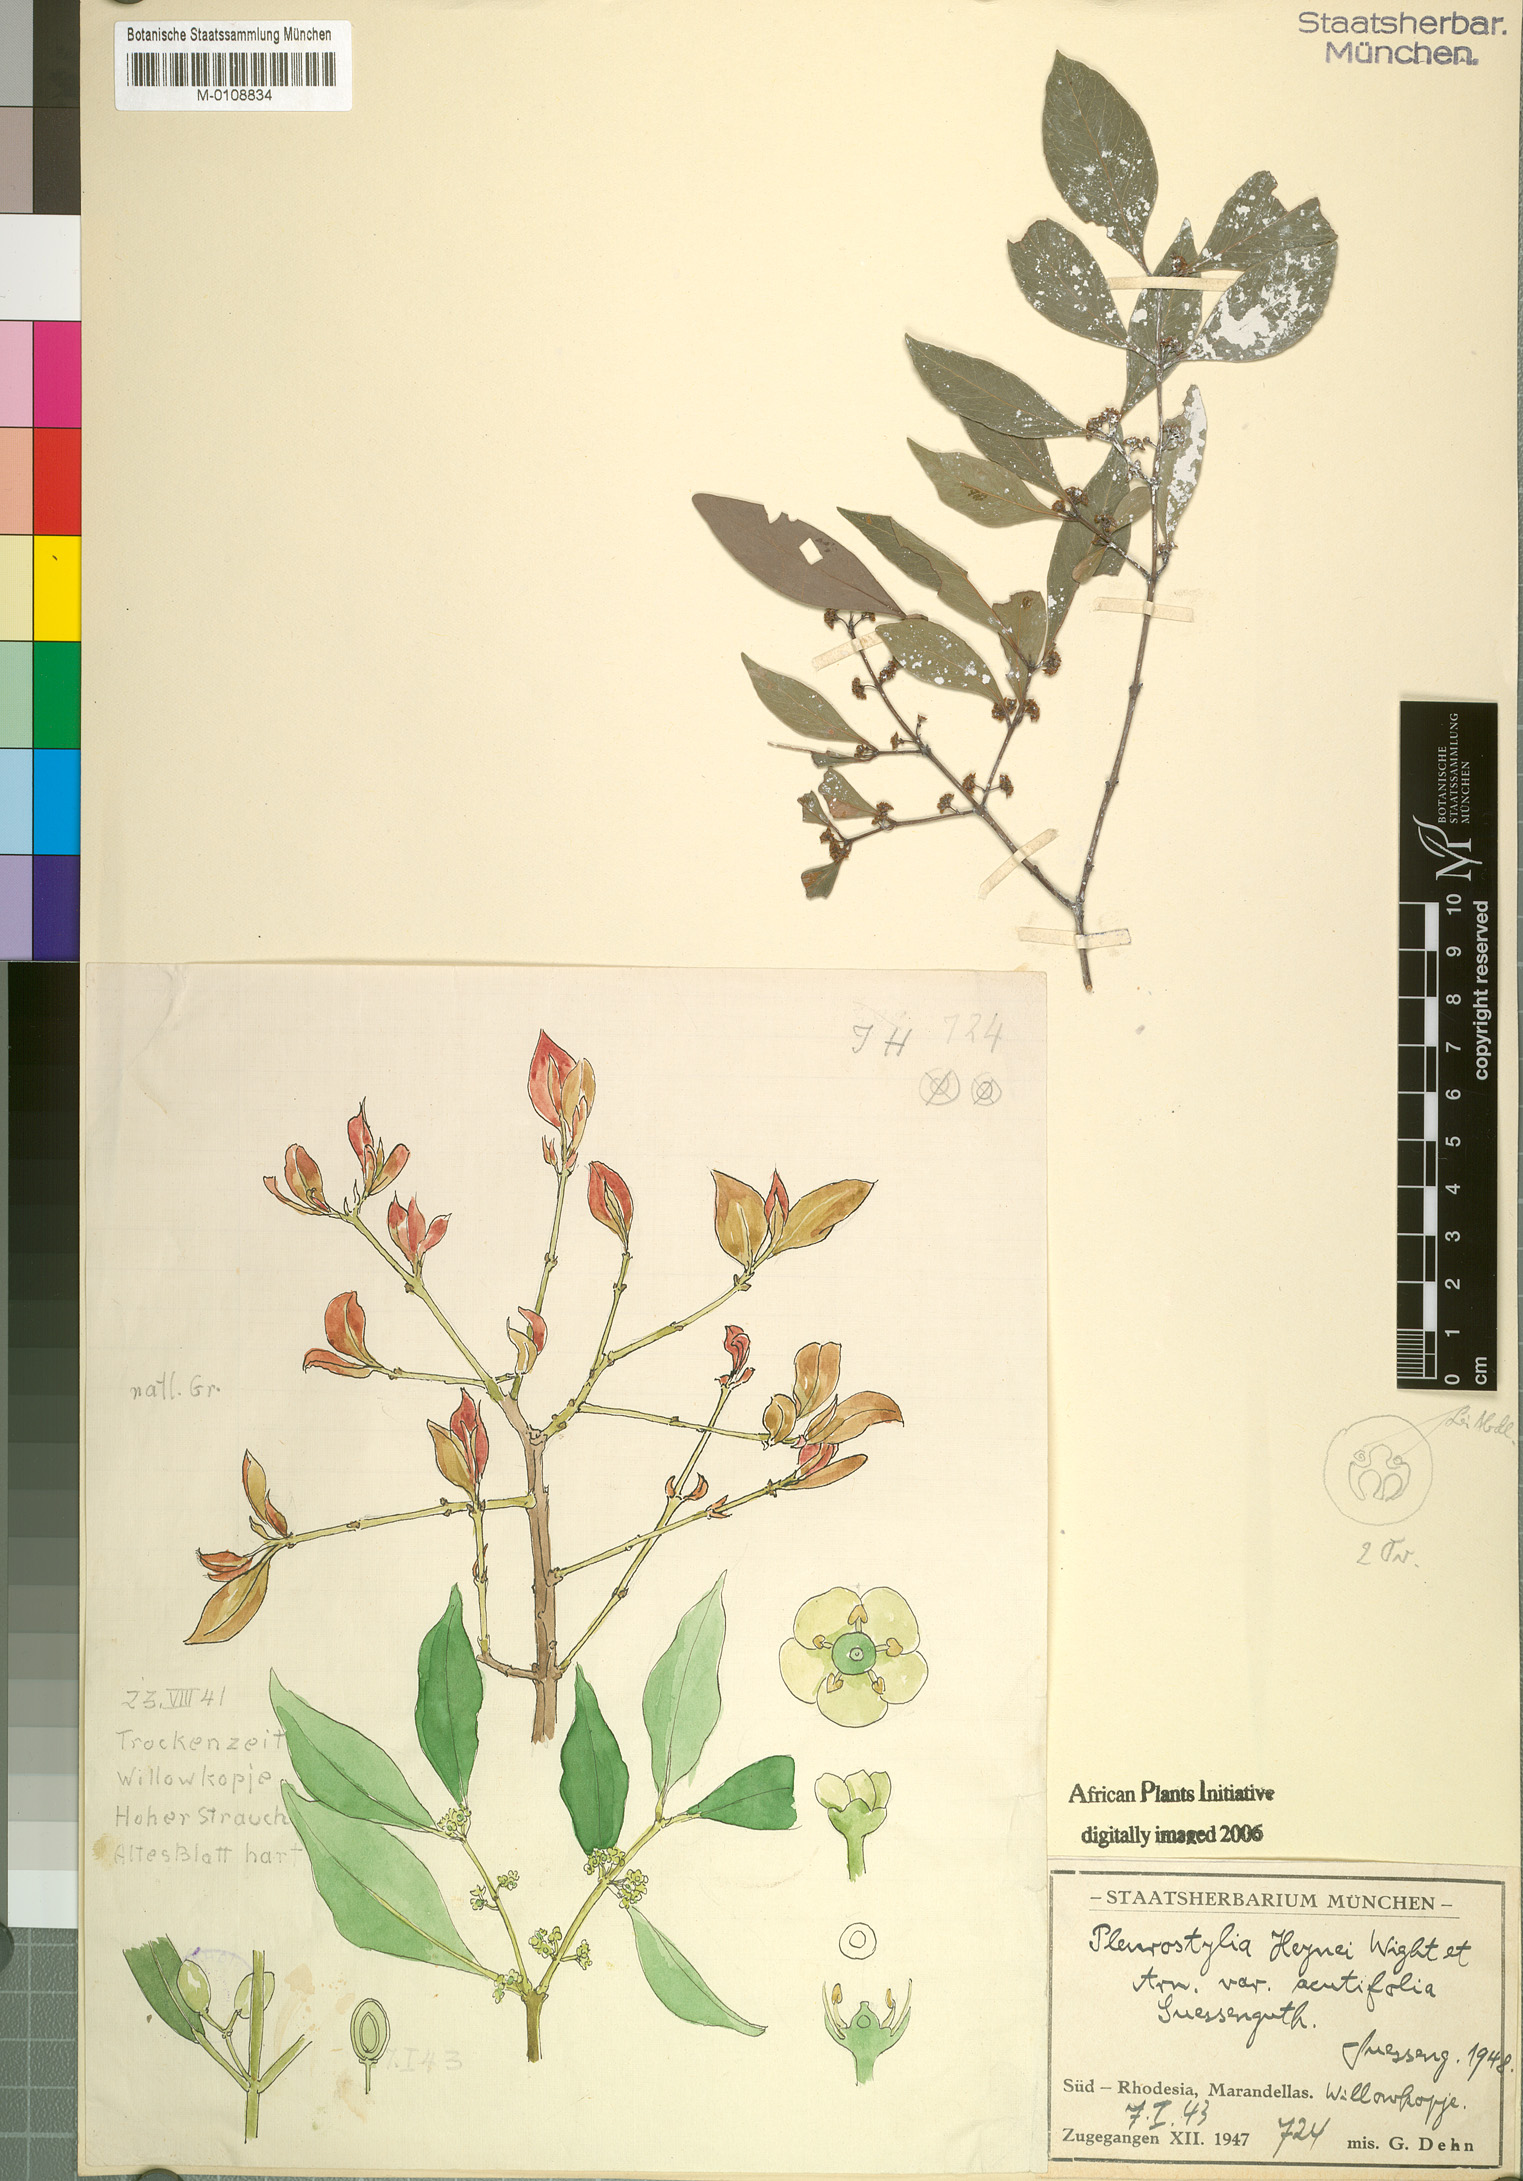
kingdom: Plantae
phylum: Tracheophyta
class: Magnoliopsida
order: Celastrales
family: Celastraceae
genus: Pleurostylia
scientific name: Pleurostylia africana
